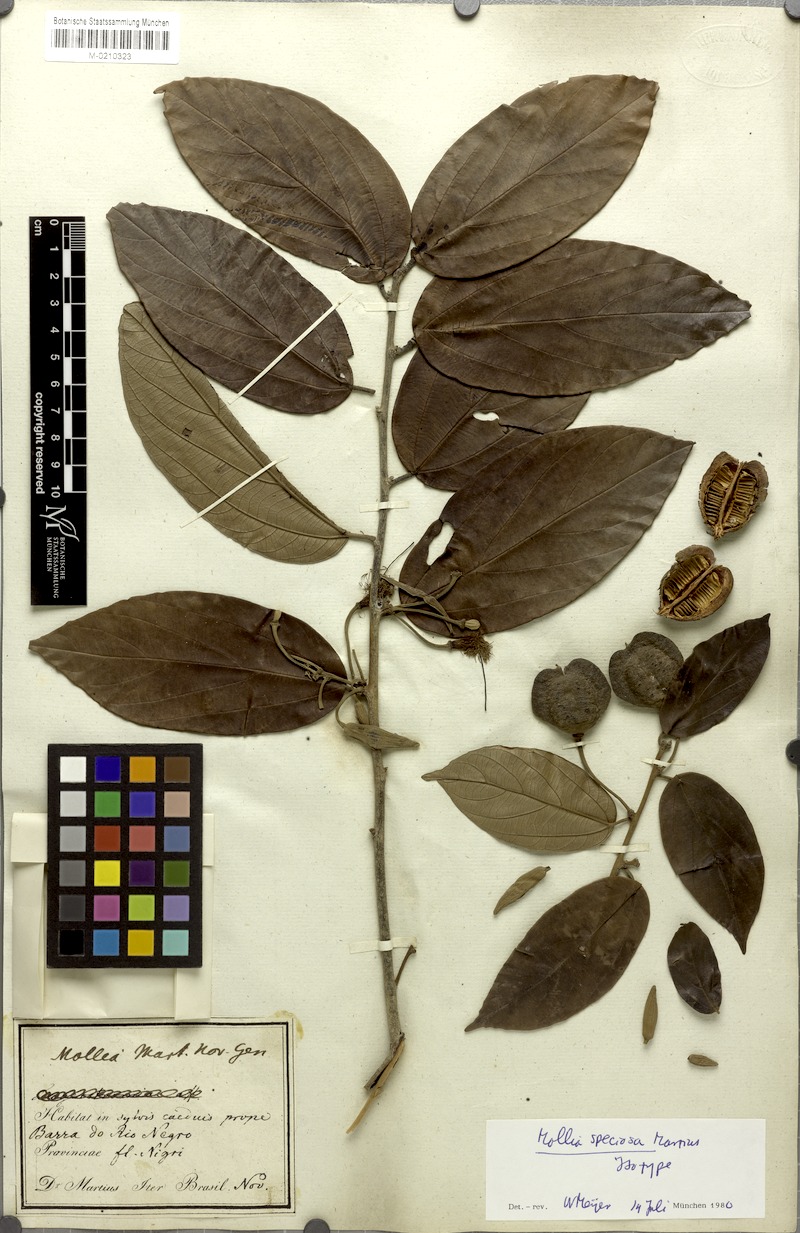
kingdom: Plantae
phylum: Tracheophyta
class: Magnoliopsida
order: Malvales
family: Malvaceae
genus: Mollia
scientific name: Mollia speciosa
